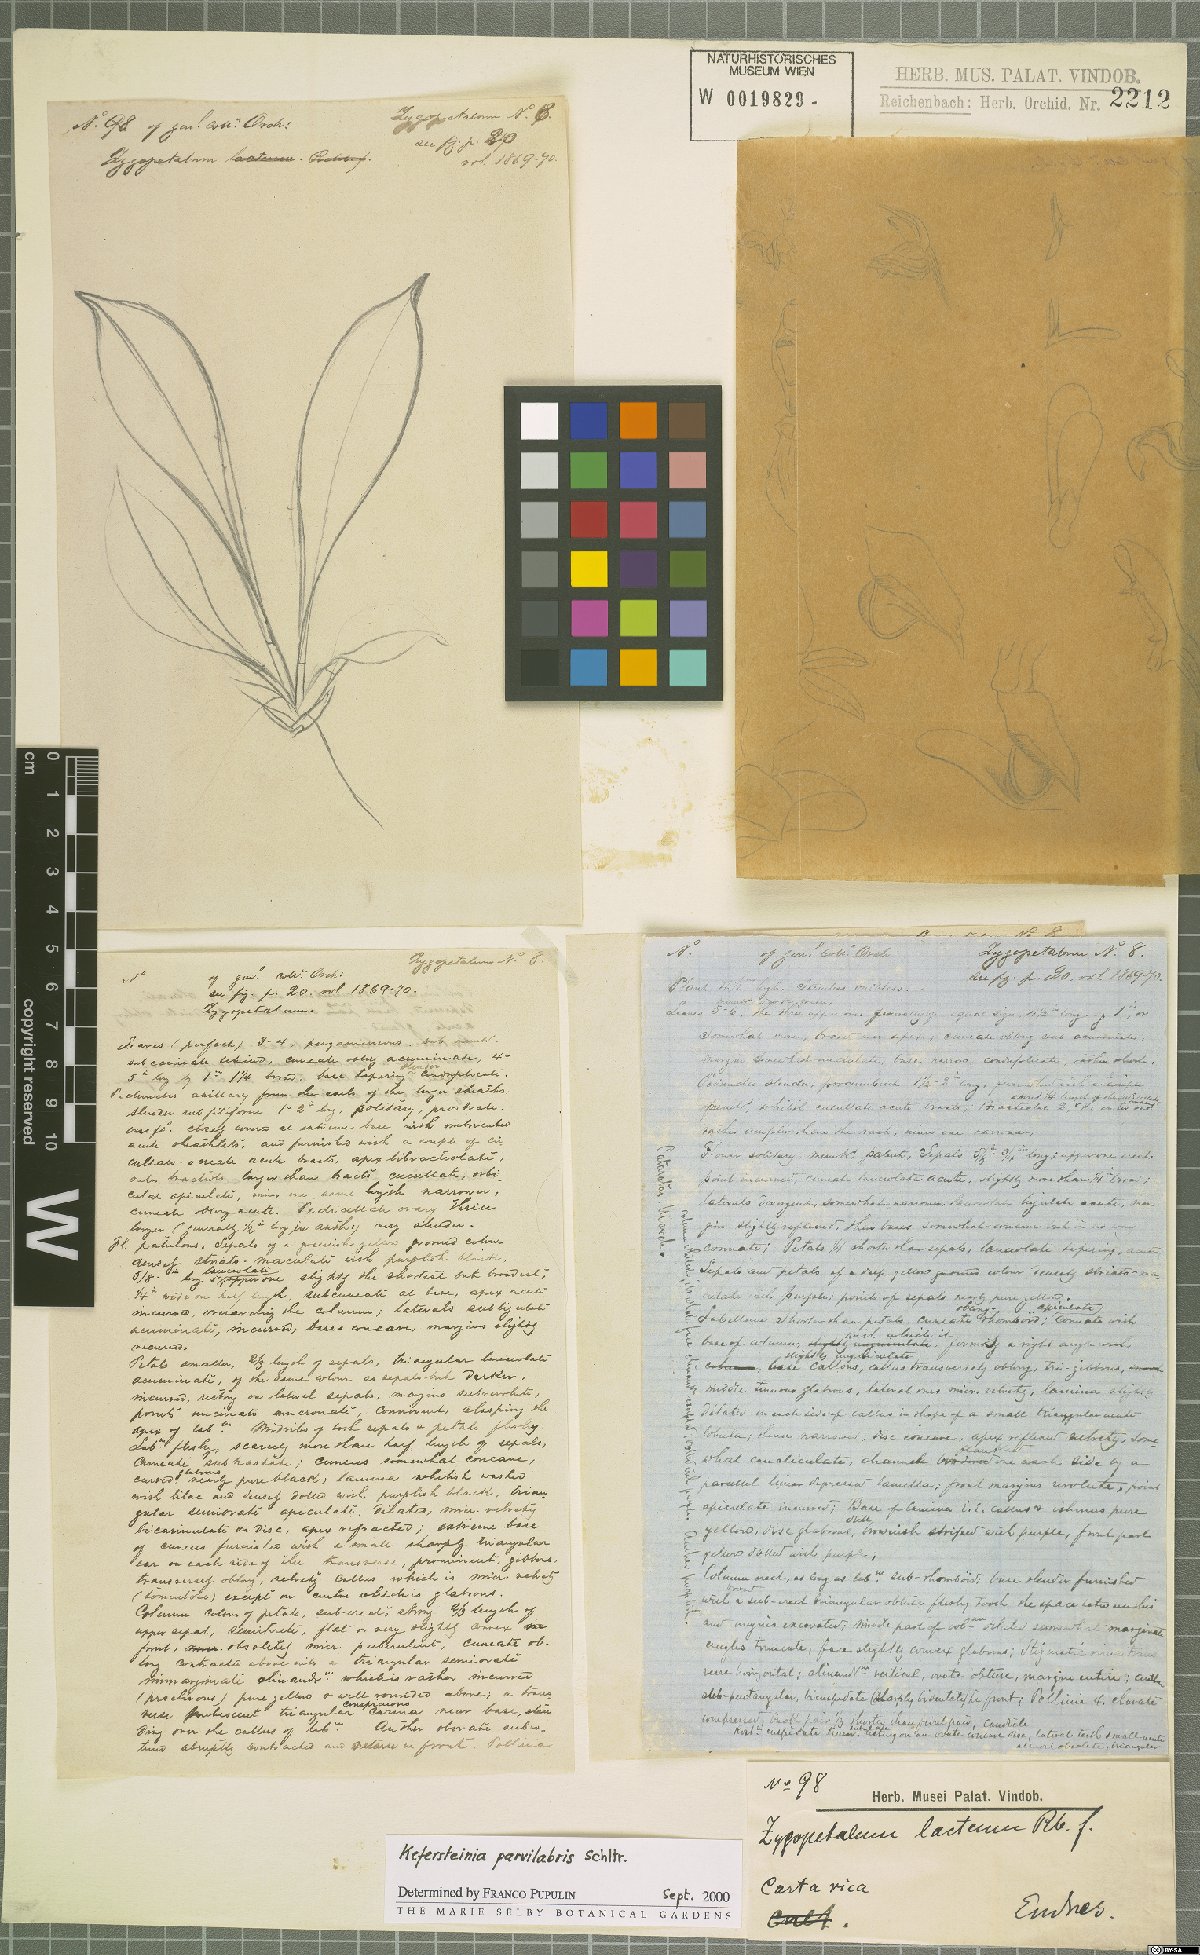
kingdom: Plantae
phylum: Tracheophyta
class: Liliopsida
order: Asparagales
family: Orchidaceae
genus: Kefersteinia
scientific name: Kefersteinia parvilabris
